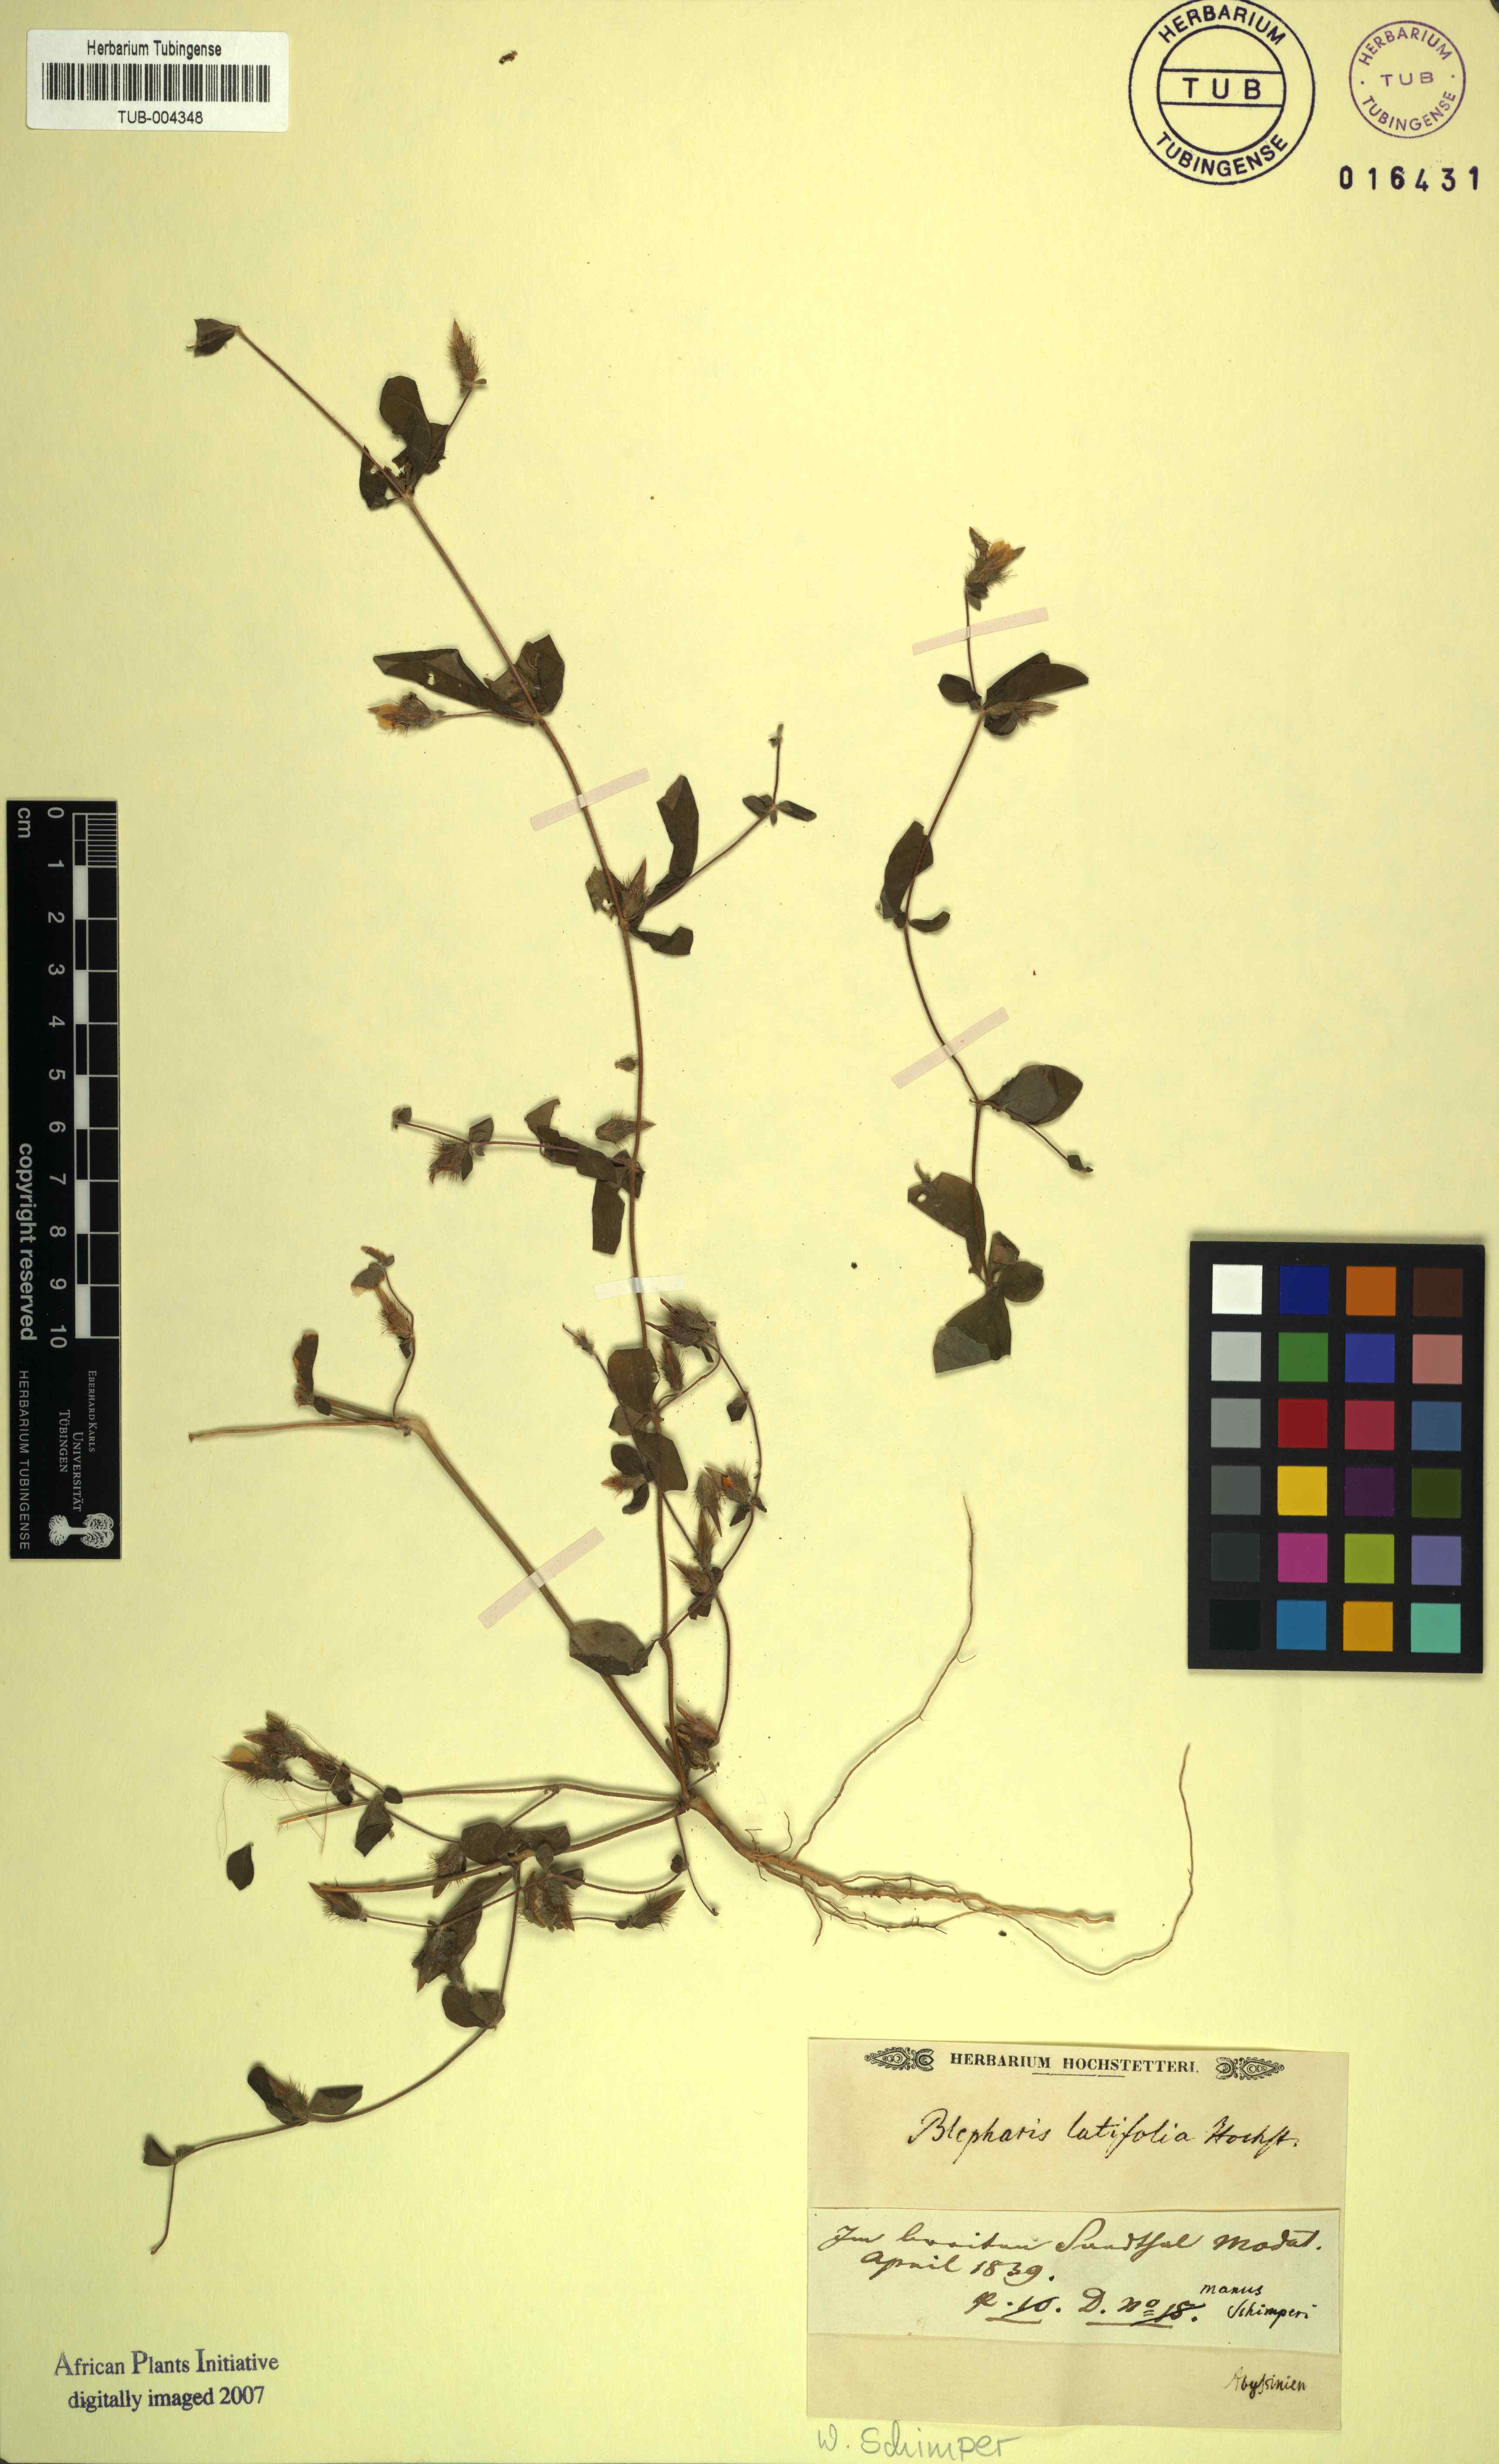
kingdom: Plantae
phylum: Tracheophyta
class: Magnoliopsida
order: Lamiales
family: Acanthaceae
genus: Blepharis
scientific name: Blepharis
